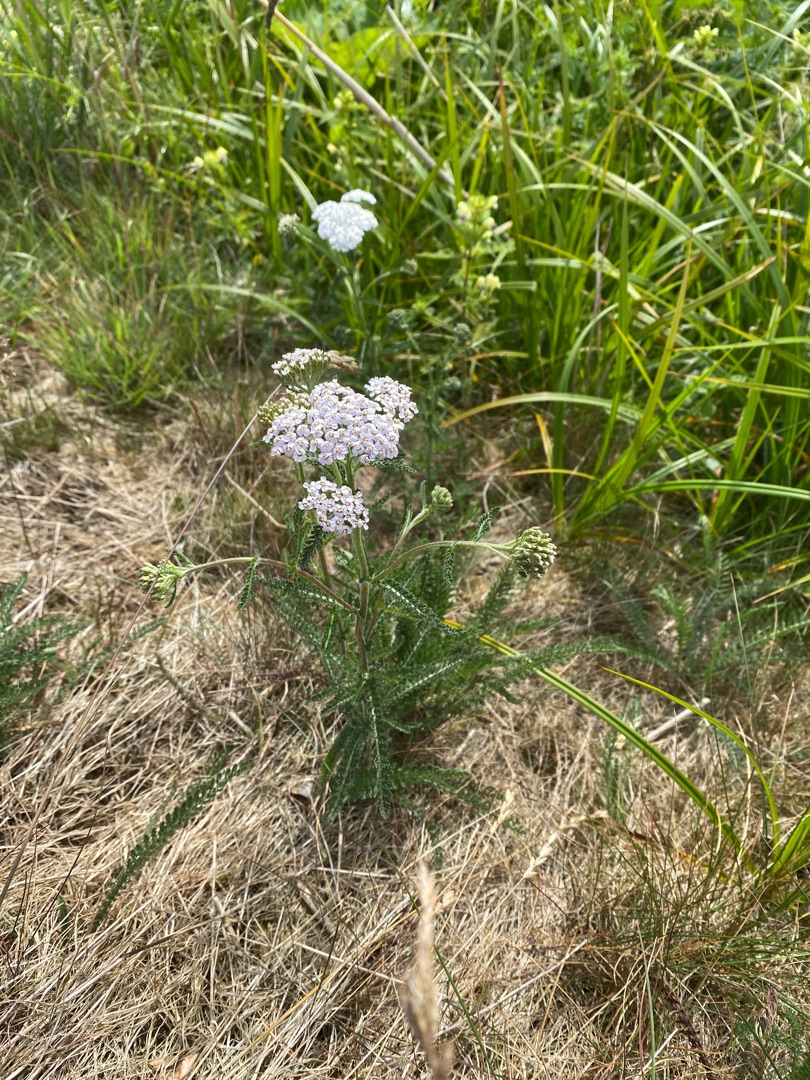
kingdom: Plantae
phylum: Tracheophyta
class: Magnoliopsida
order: Asterales
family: Asteraceae
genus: Achillea
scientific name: Achillea millefolium
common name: Almindelig røllike
